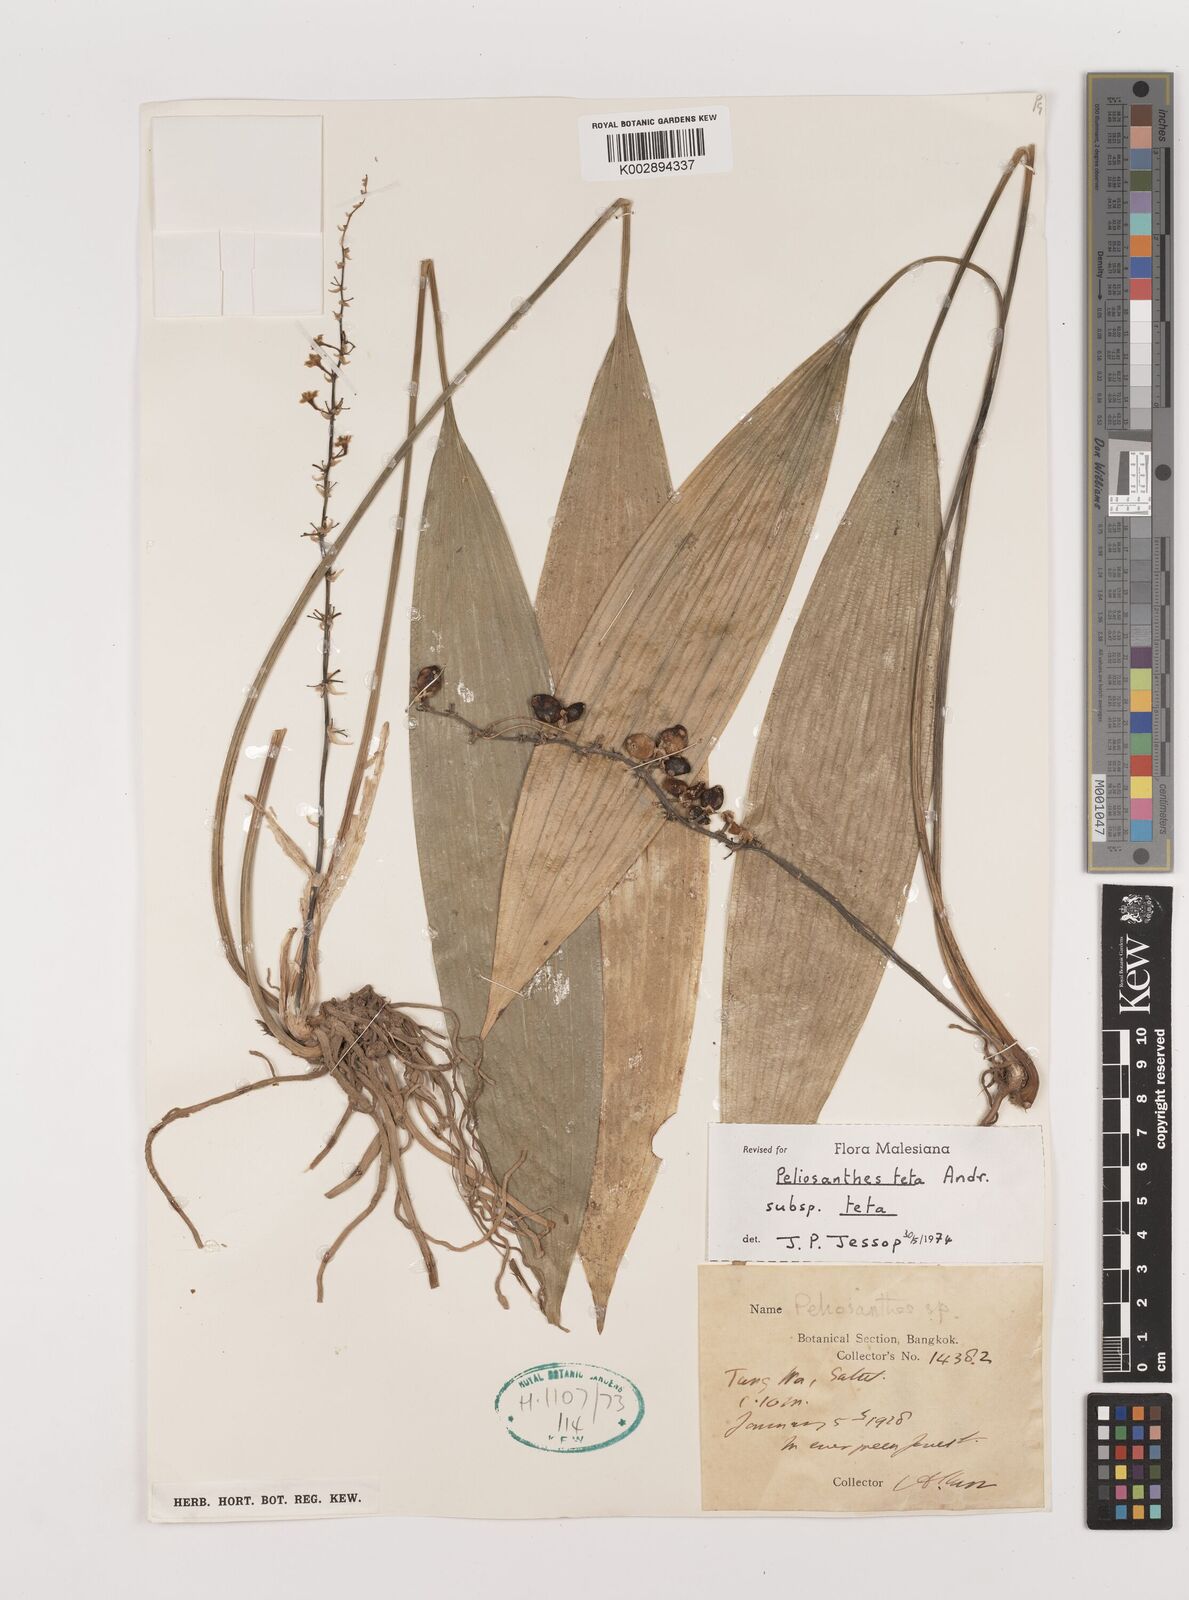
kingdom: Plantae
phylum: Tracheophyta
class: Liliopsida
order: Asparagales
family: Asparagaceae
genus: Peliosanthes
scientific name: Peliosanthes teta
